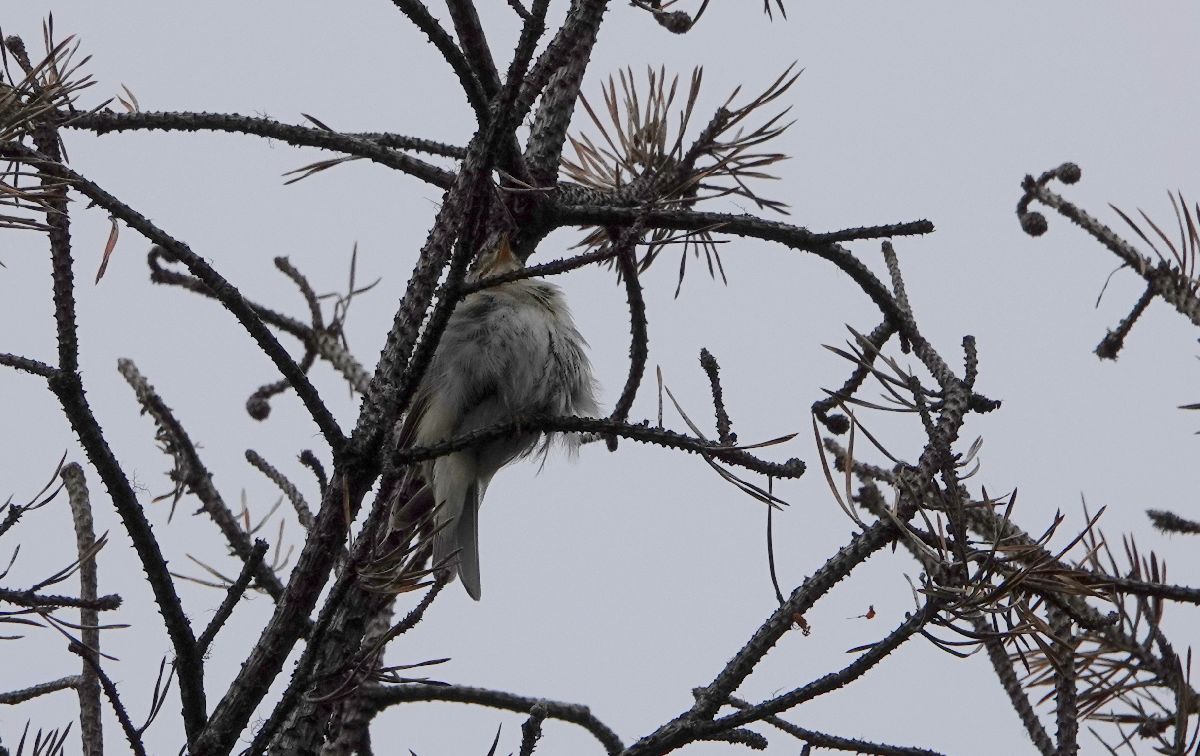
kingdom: Animalia
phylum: Chordata
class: Aves
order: Passeriformes
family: Phylloscopidae
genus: Phylloscopus
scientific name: Phylloscopus trochilus
